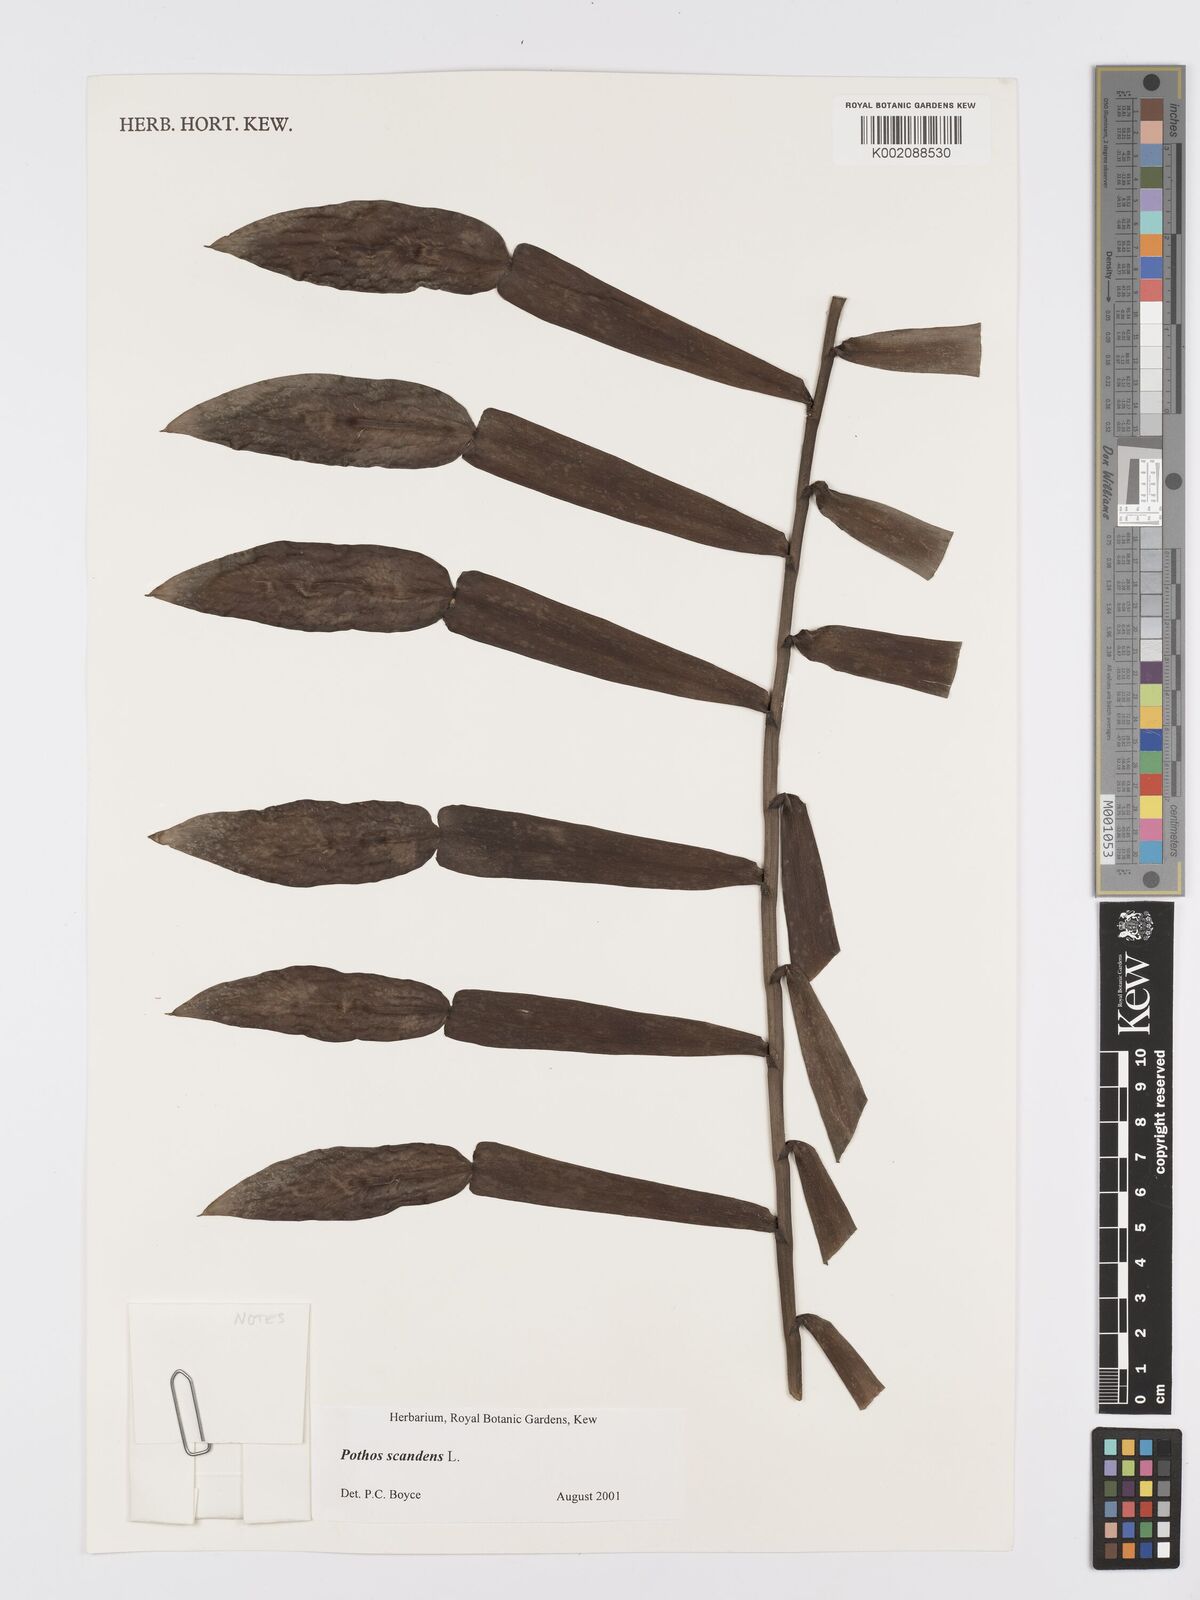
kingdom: Plantae
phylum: Tracheophyta
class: Liliopsida
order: Alismatales
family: Araceae
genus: Pothos
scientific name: Pothos scandens
